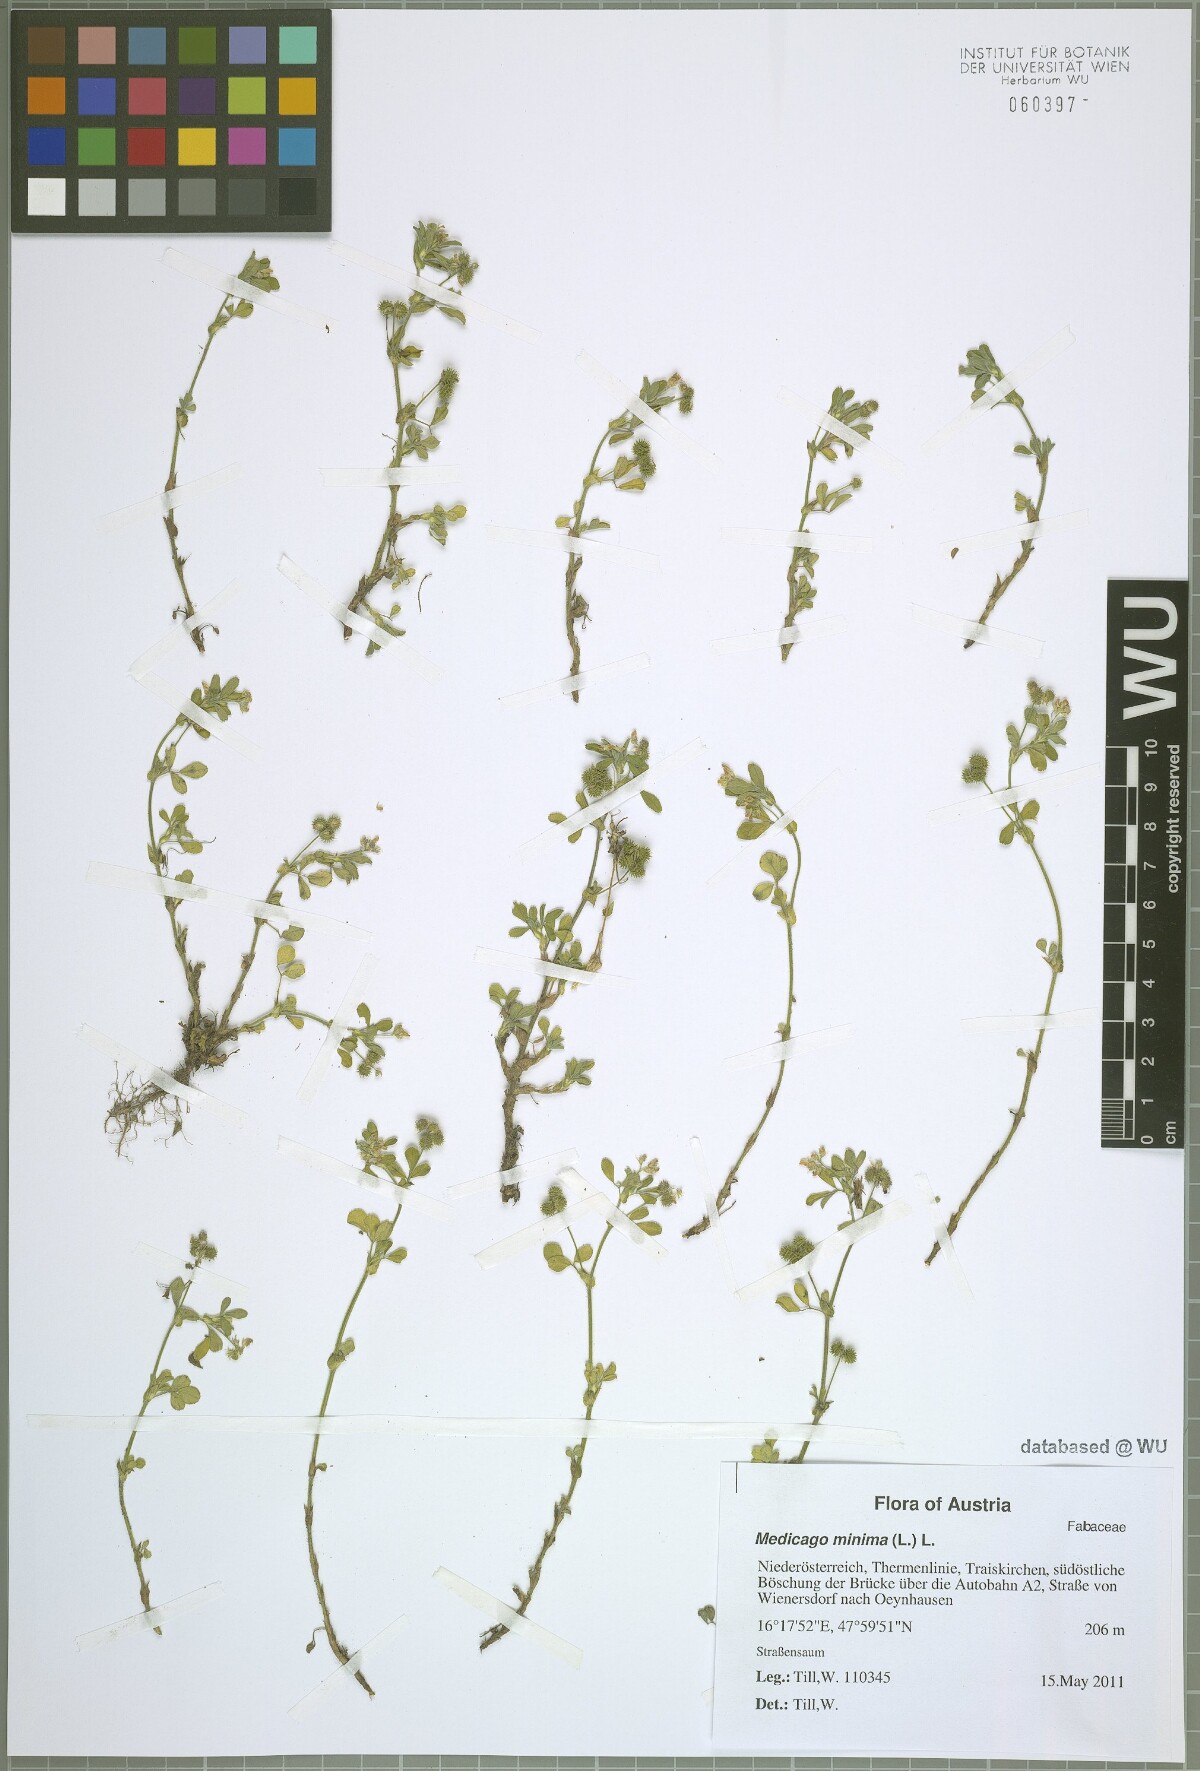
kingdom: Plantae
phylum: Tracheophyta
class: Magnoliopsida
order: Fabales
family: Fabaceae
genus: Medicago
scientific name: Medicago minima
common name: Little bur-clover
